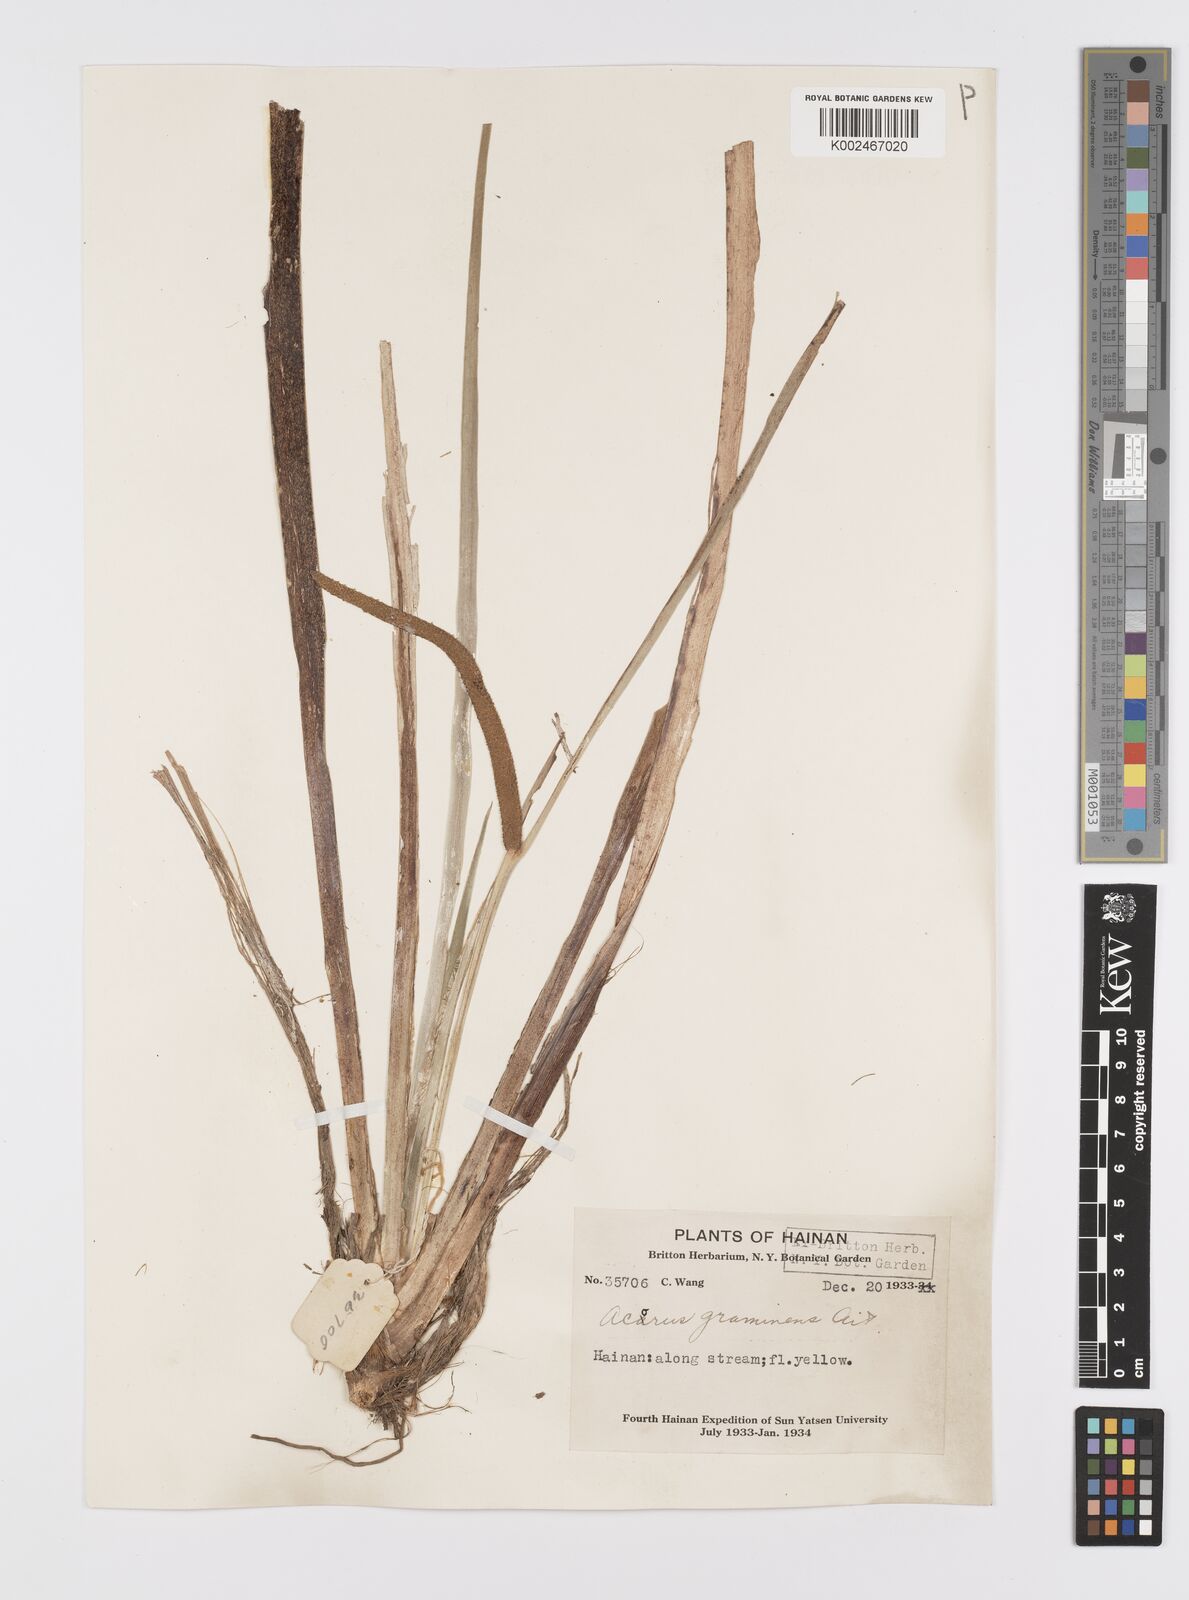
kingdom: Plantae
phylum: Tracheophyta
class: Liliopsida
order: Acorales
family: Acoraceae
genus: Acorus
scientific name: Acorus gramineus
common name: Slender sweet-flag
